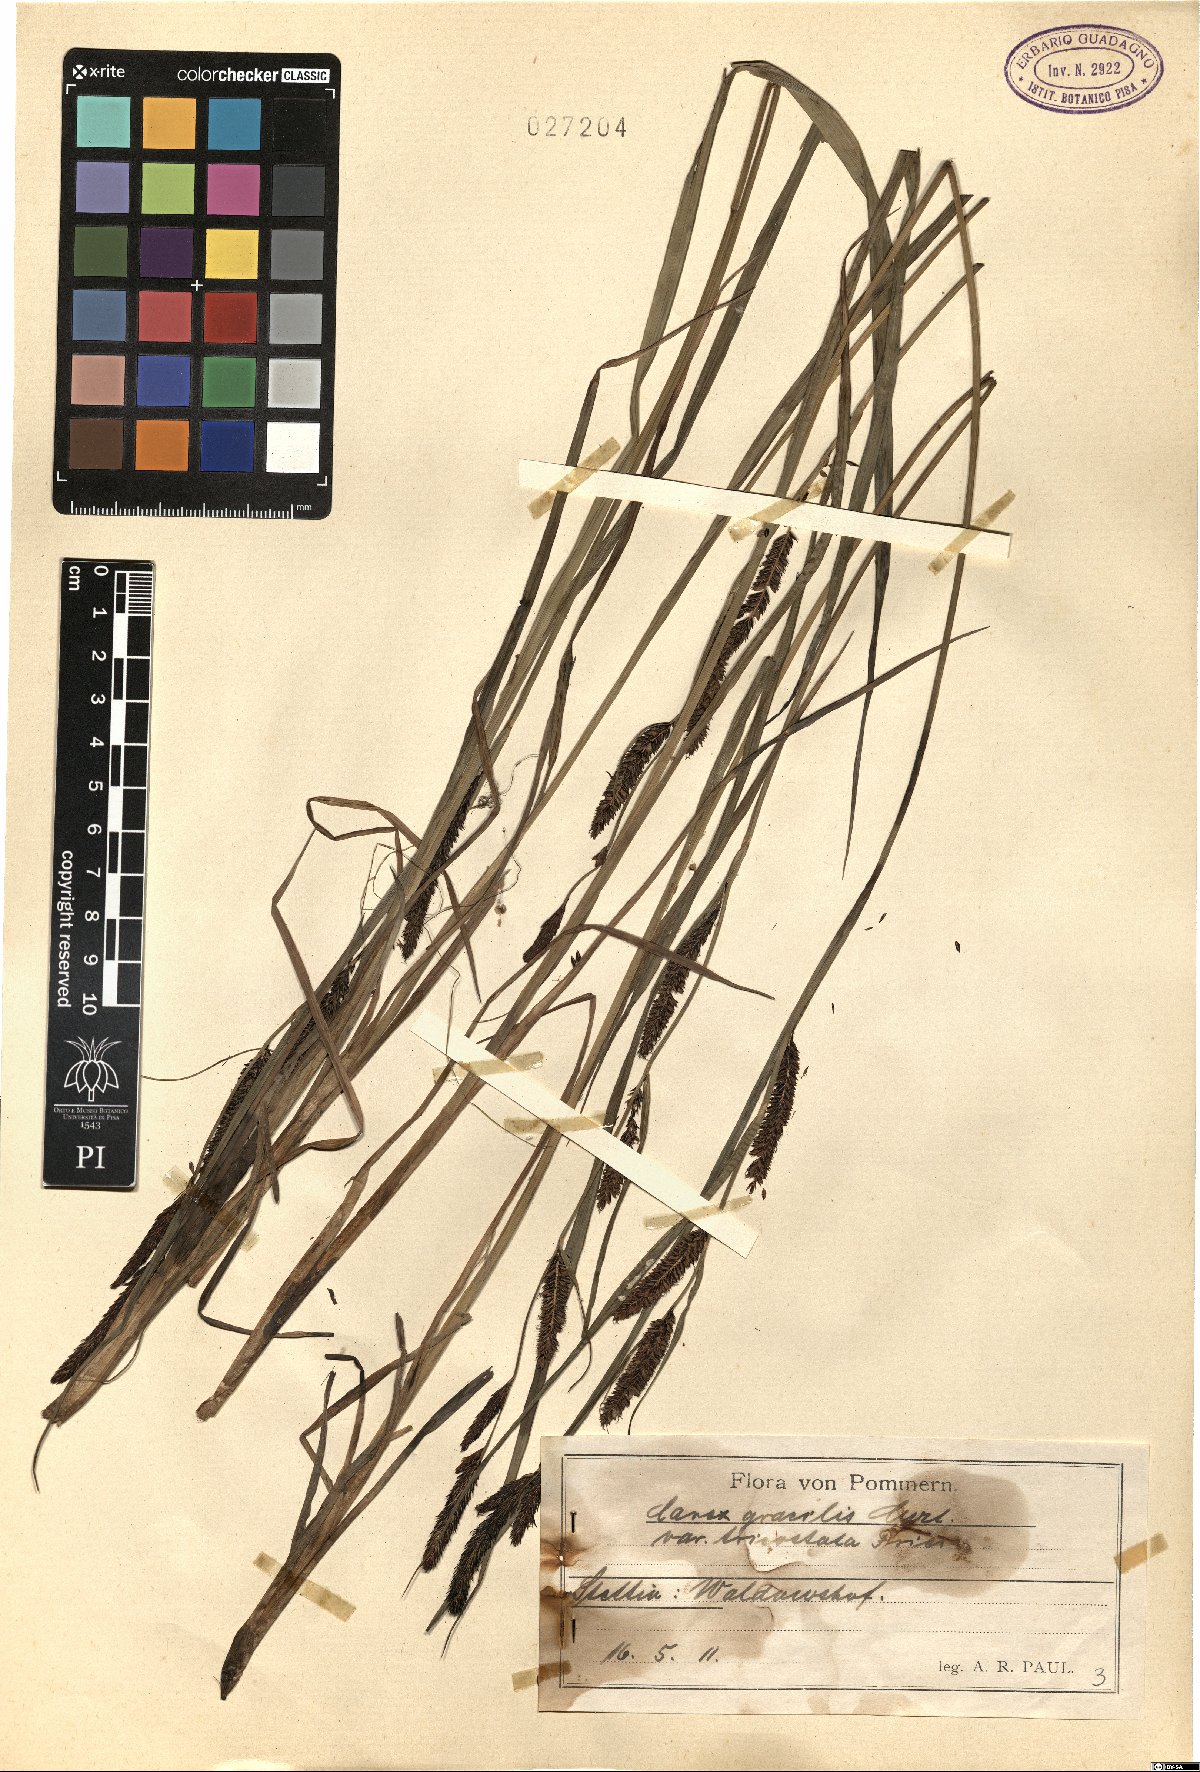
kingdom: Plantae
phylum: Tracheophyta
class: Liliopsida
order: Poales
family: Cyperaceae
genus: Carex
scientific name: Carex acuta
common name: Slender tufted-sedge
